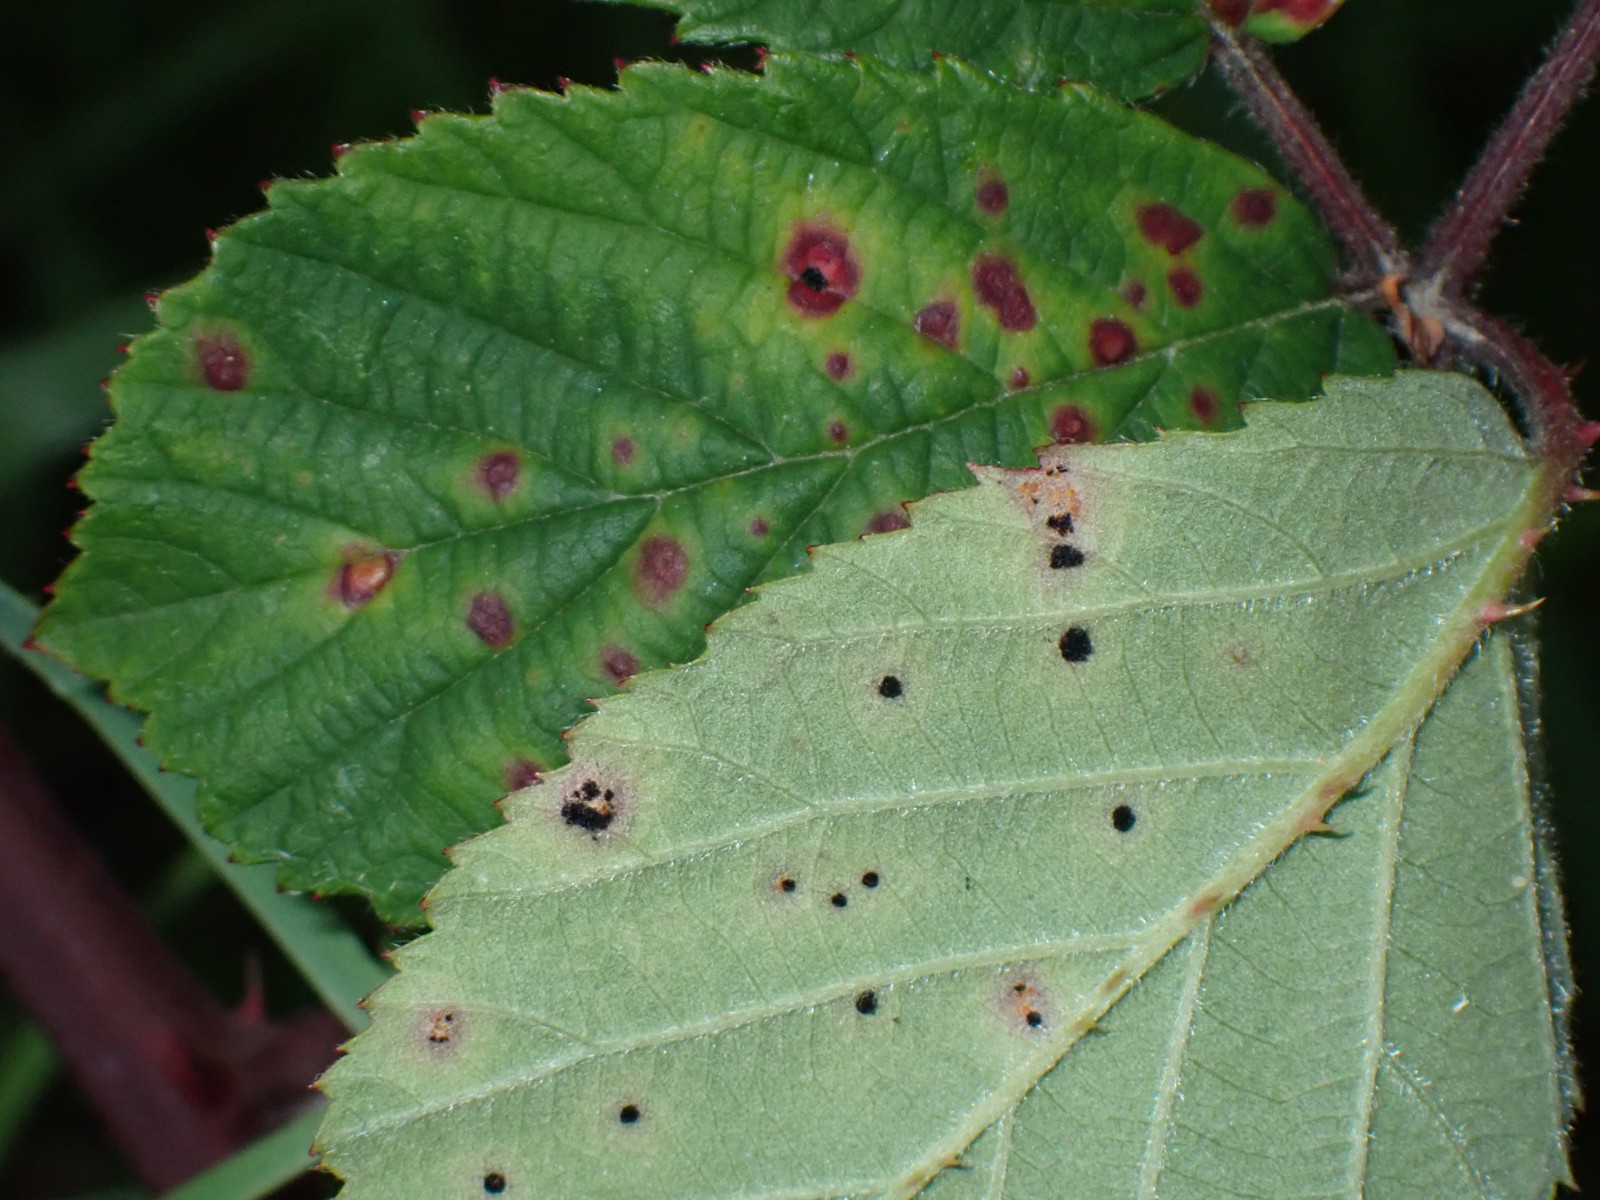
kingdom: Fungi
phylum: Basidiomycota
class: Pucciniomycetes
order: Pucciniales
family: Phragmidiaceae
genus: Phragmidium
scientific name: Phragmidium violaceum
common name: violet flercellerust
